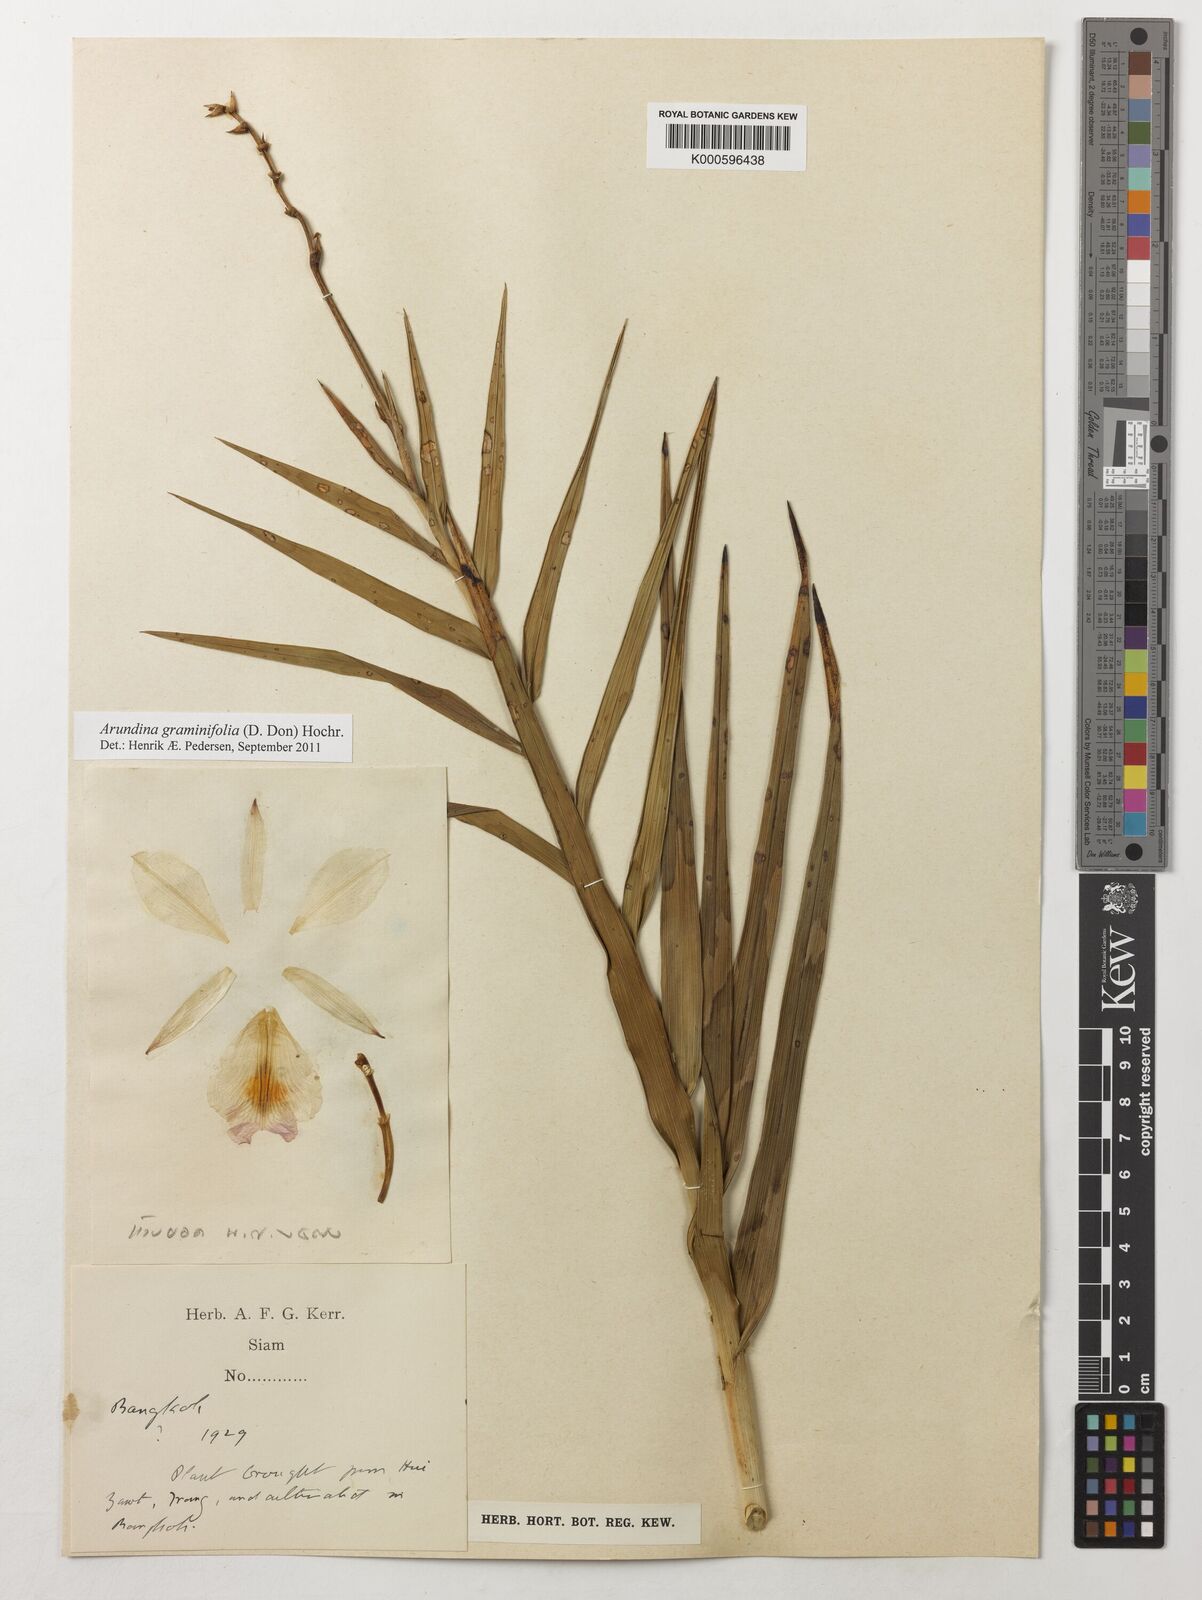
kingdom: Plantae
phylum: Tracheophyta
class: Liliopsida
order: Asparagales
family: Orchidaceae
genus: Arundina
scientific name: Arundina graminifolia
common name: Bamboo orchid
